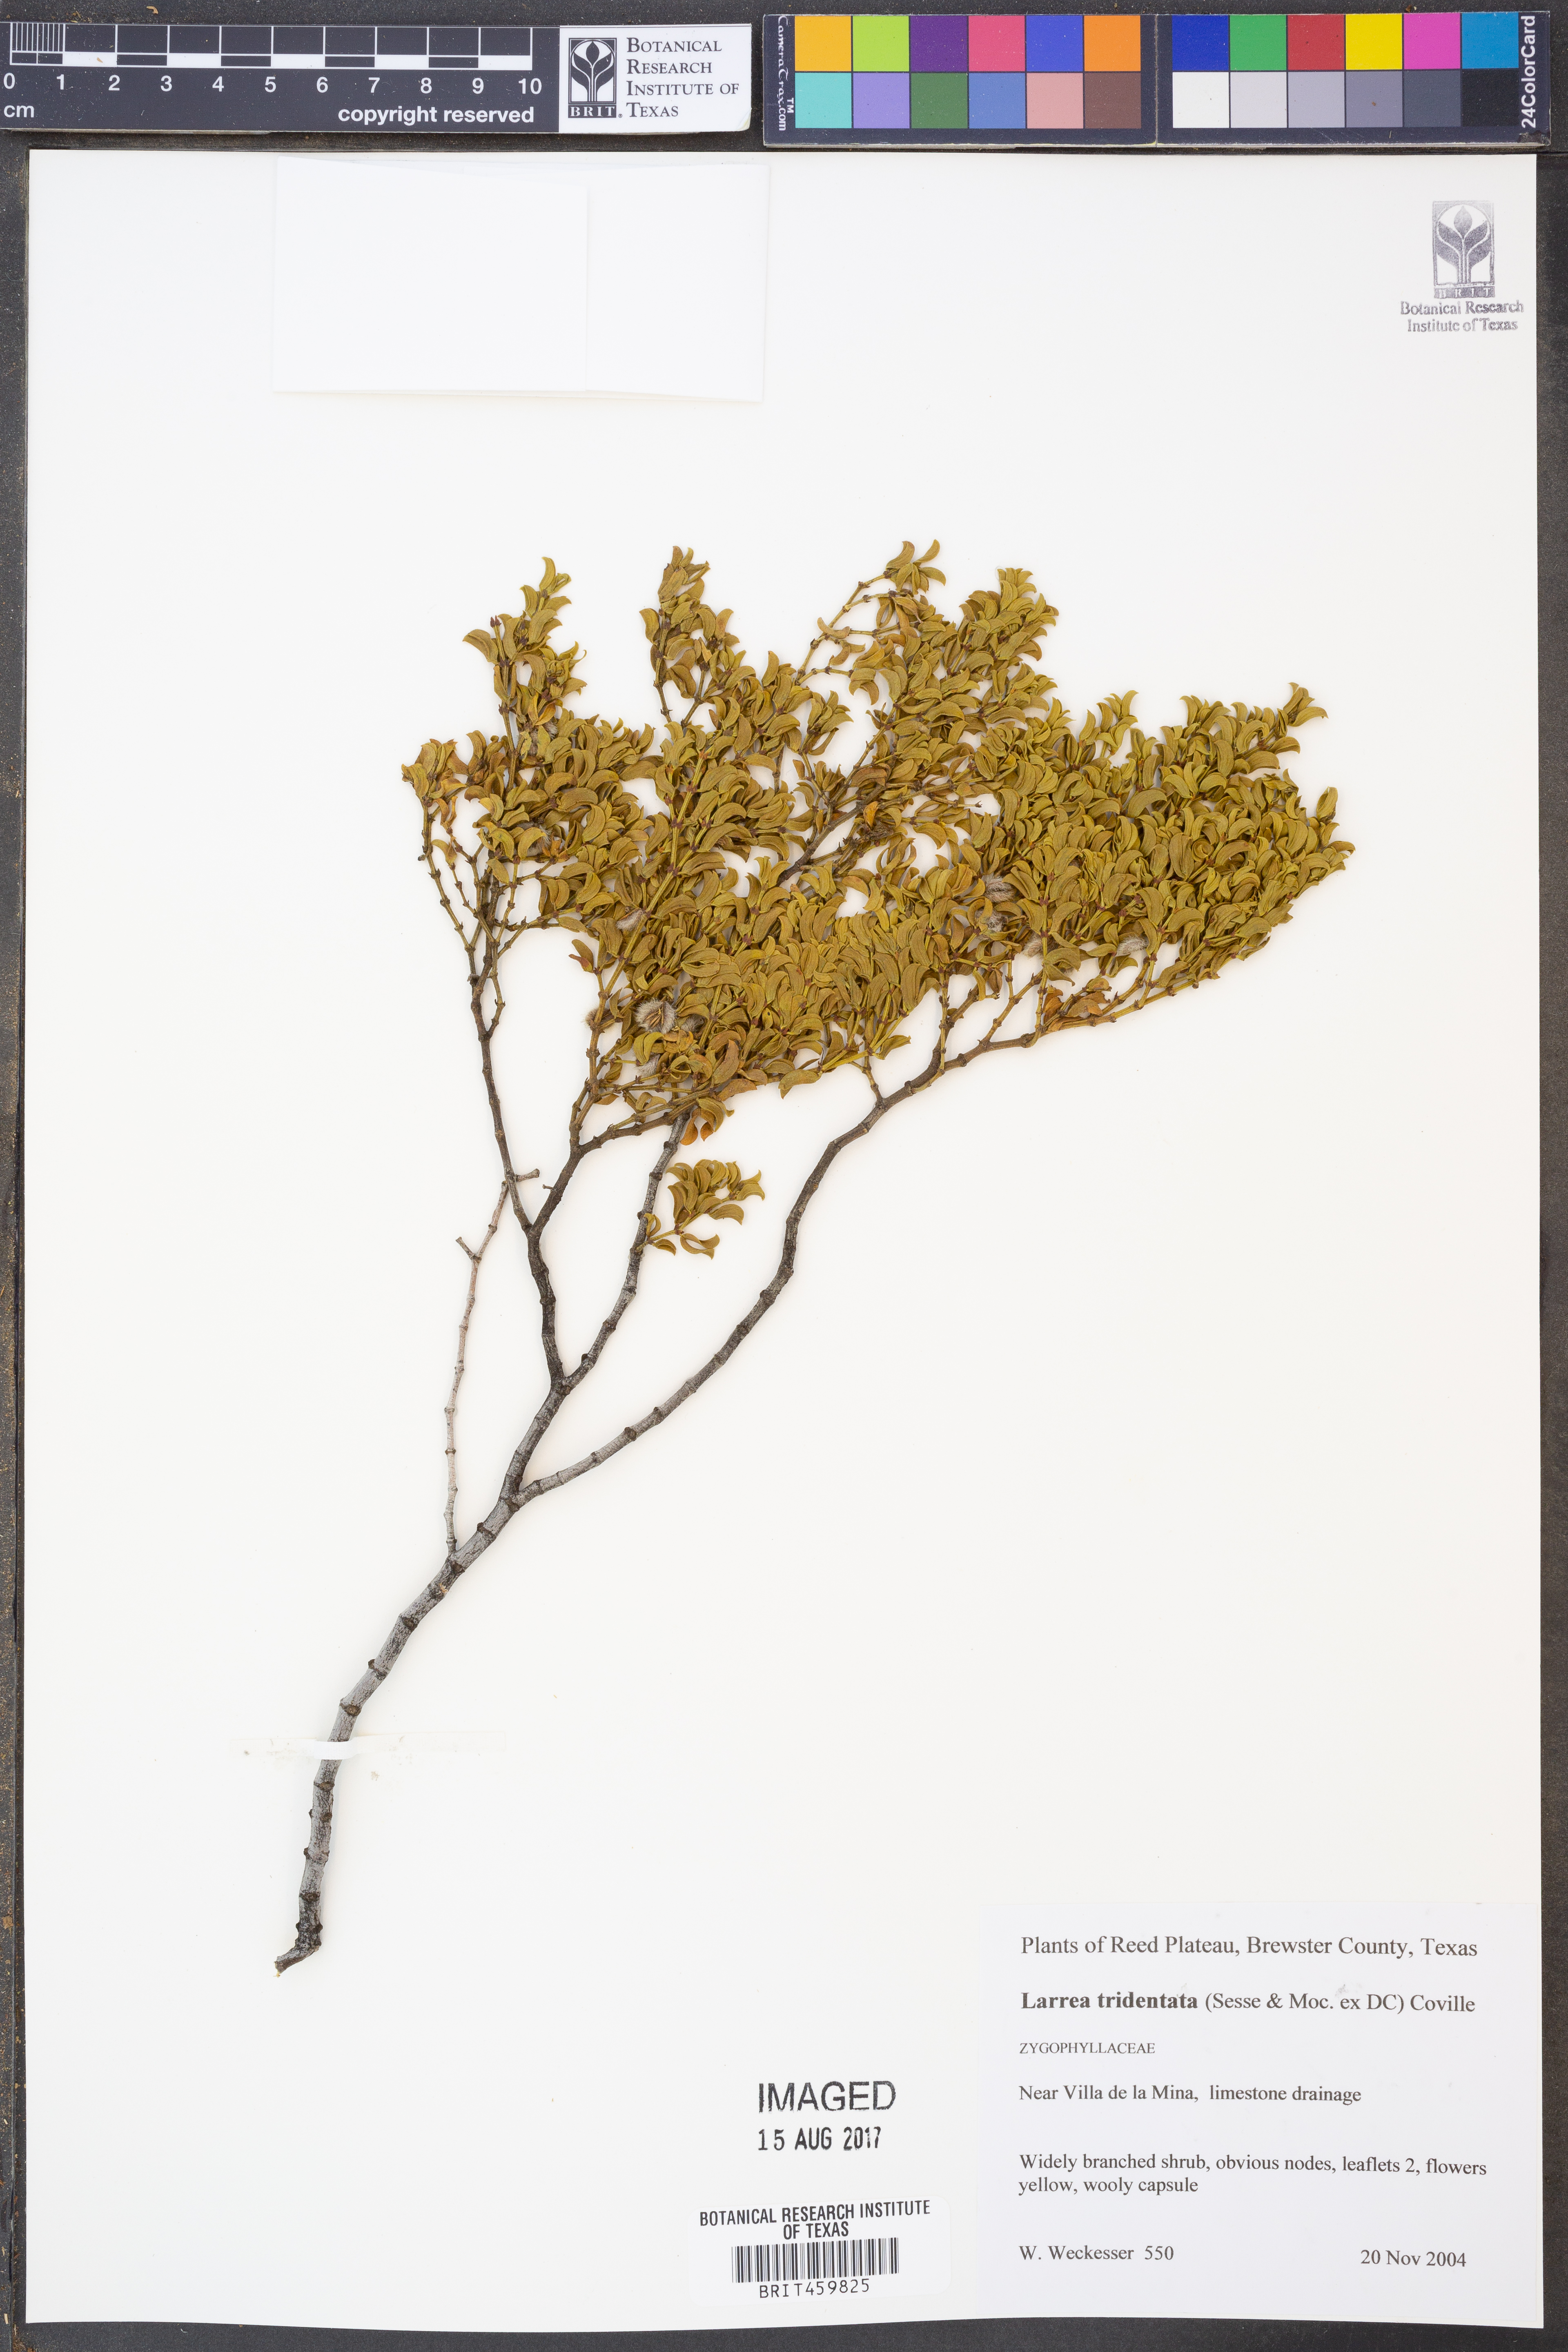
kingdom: Plantae
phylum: Tracheophyta
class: Magnoliopsida
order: Zygophyllales
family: Zygophyllaceae
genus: Larrea
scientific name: Larrea tridentata
